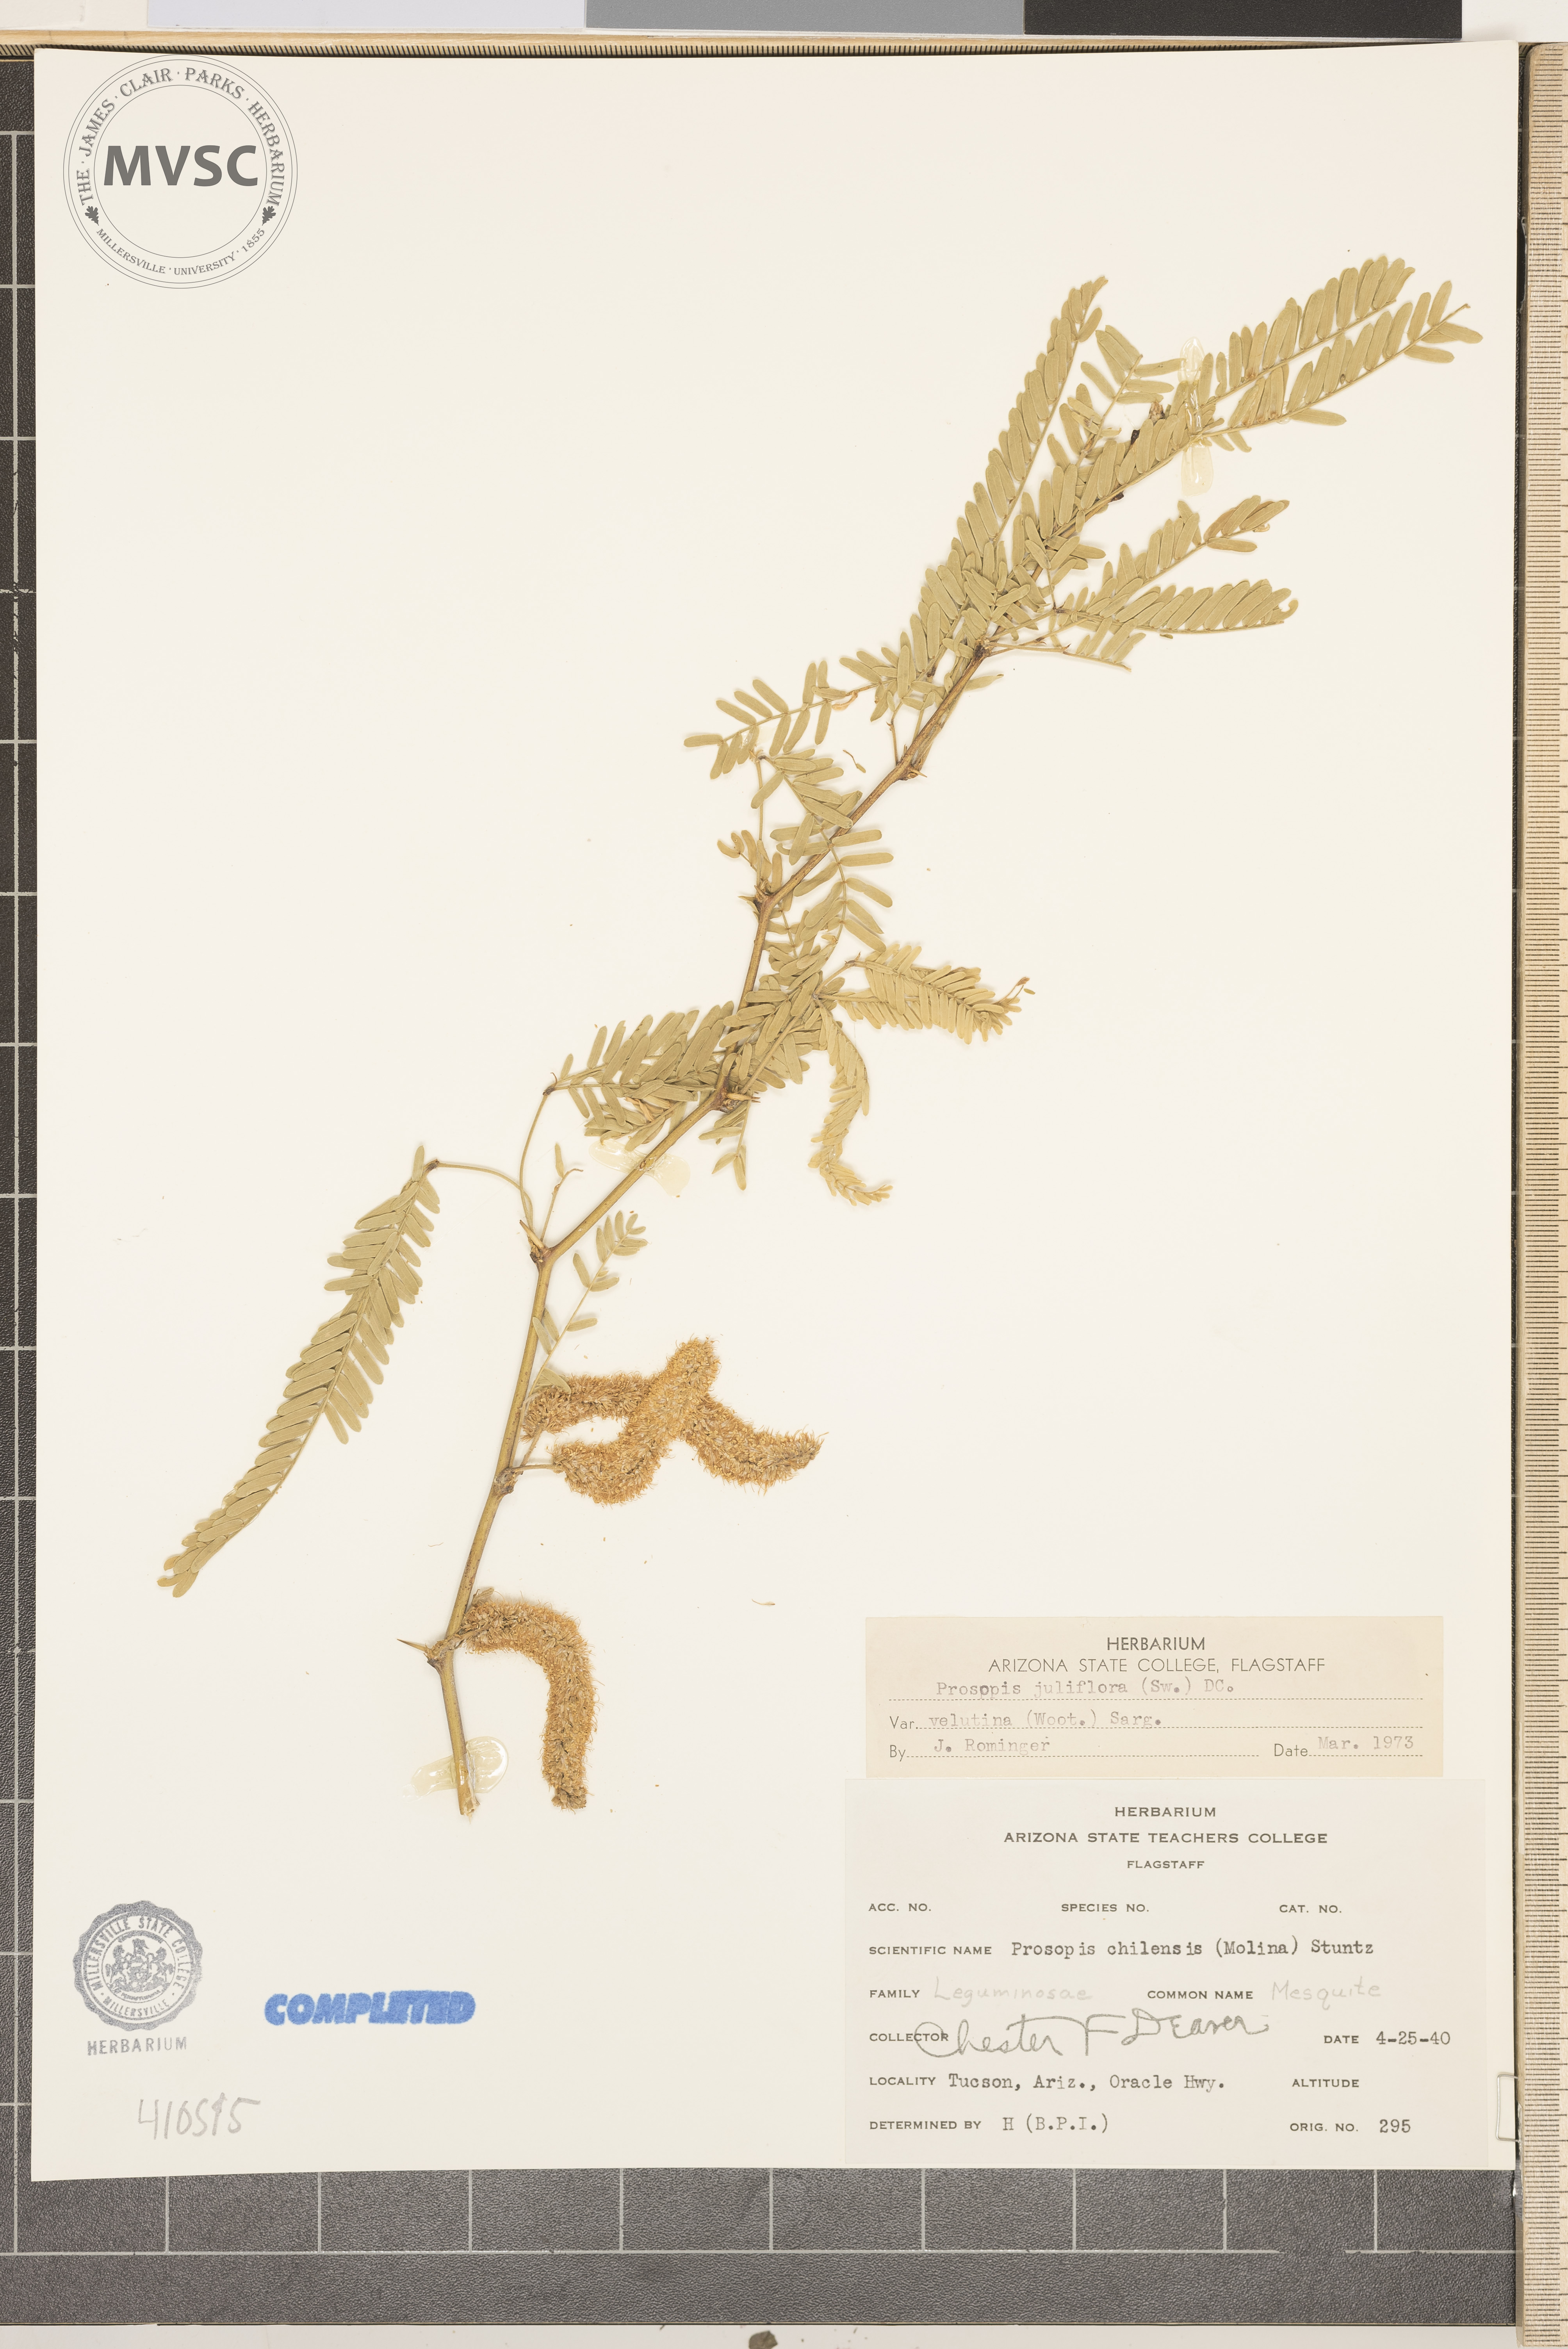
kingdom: Plantae
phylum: Tracheophyta
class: Magnoliopsida
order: Fabales
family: Fabaceae
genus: Prosopis
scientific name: Prosopis juliflora
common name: mesquite
